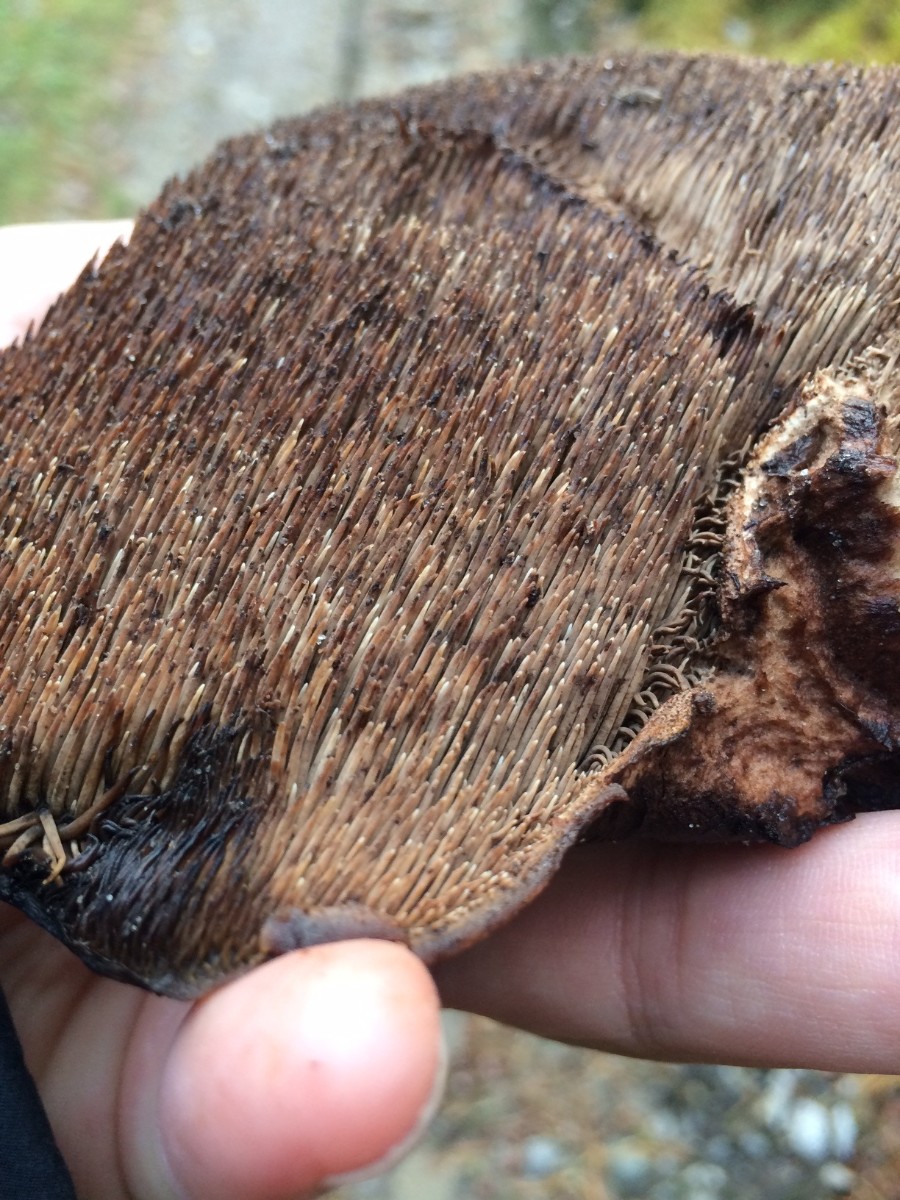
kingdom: Fungi
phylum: Basidiomycota
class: Agaricomycetes
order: Thelephorales
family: Bankeraceae
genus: Sarcodon
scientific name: Sarcodon imbricatus
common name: skællet kødpigsvamp
